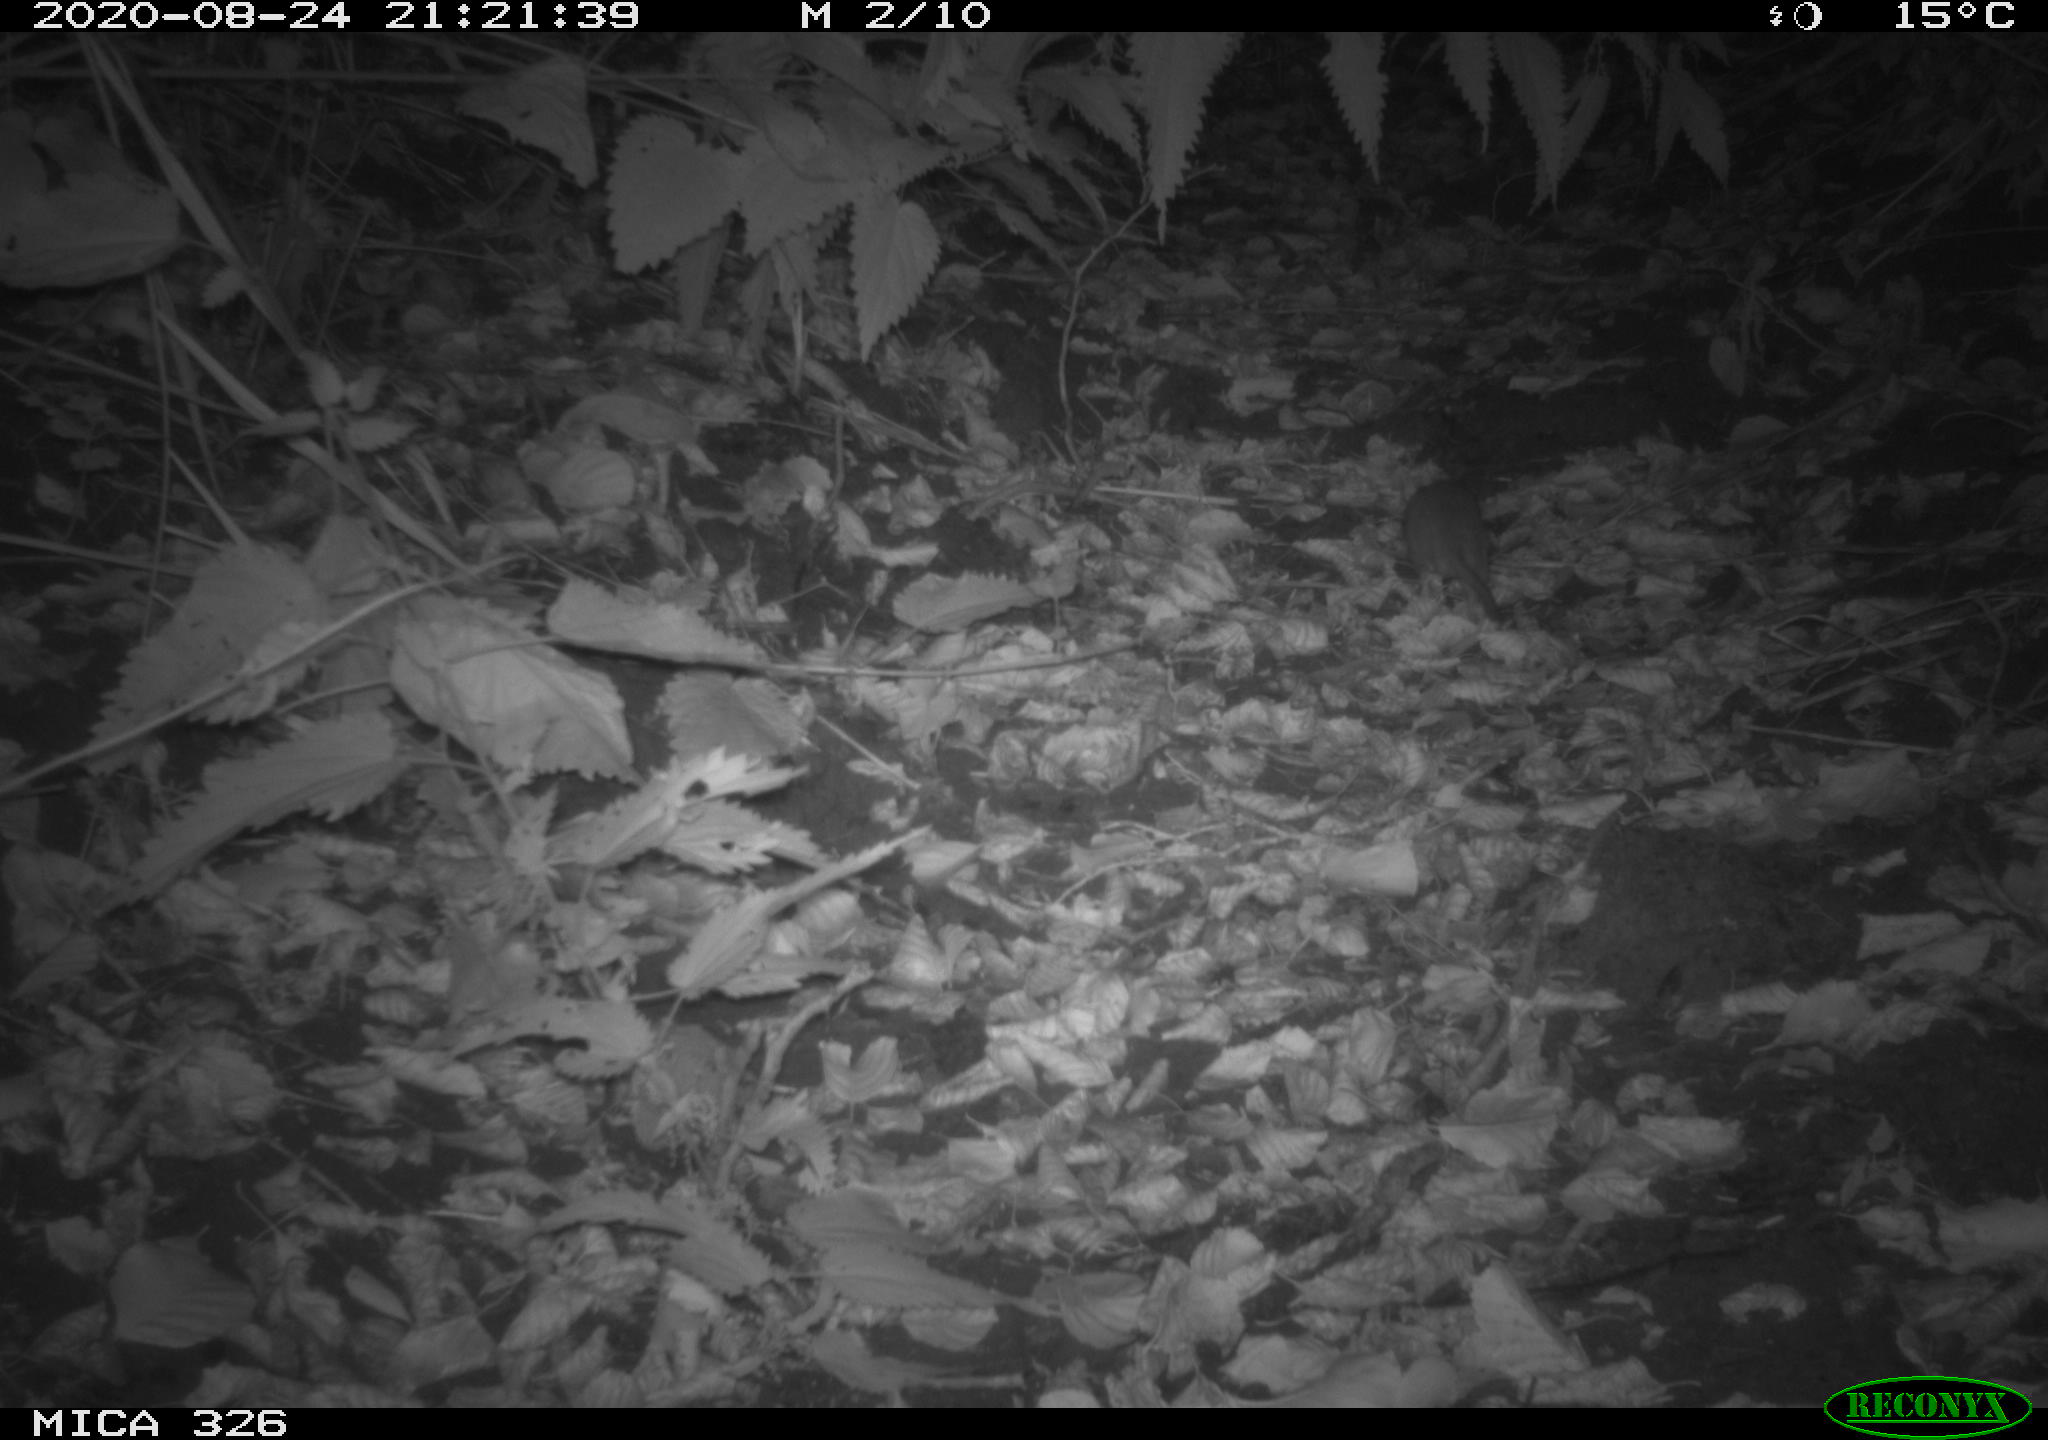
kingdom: Animalia
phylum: Chordata
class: Mammalia
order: Rodentia
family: Muridae
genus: Rattus
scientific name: Rattus norvegicus
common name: Brown rat
